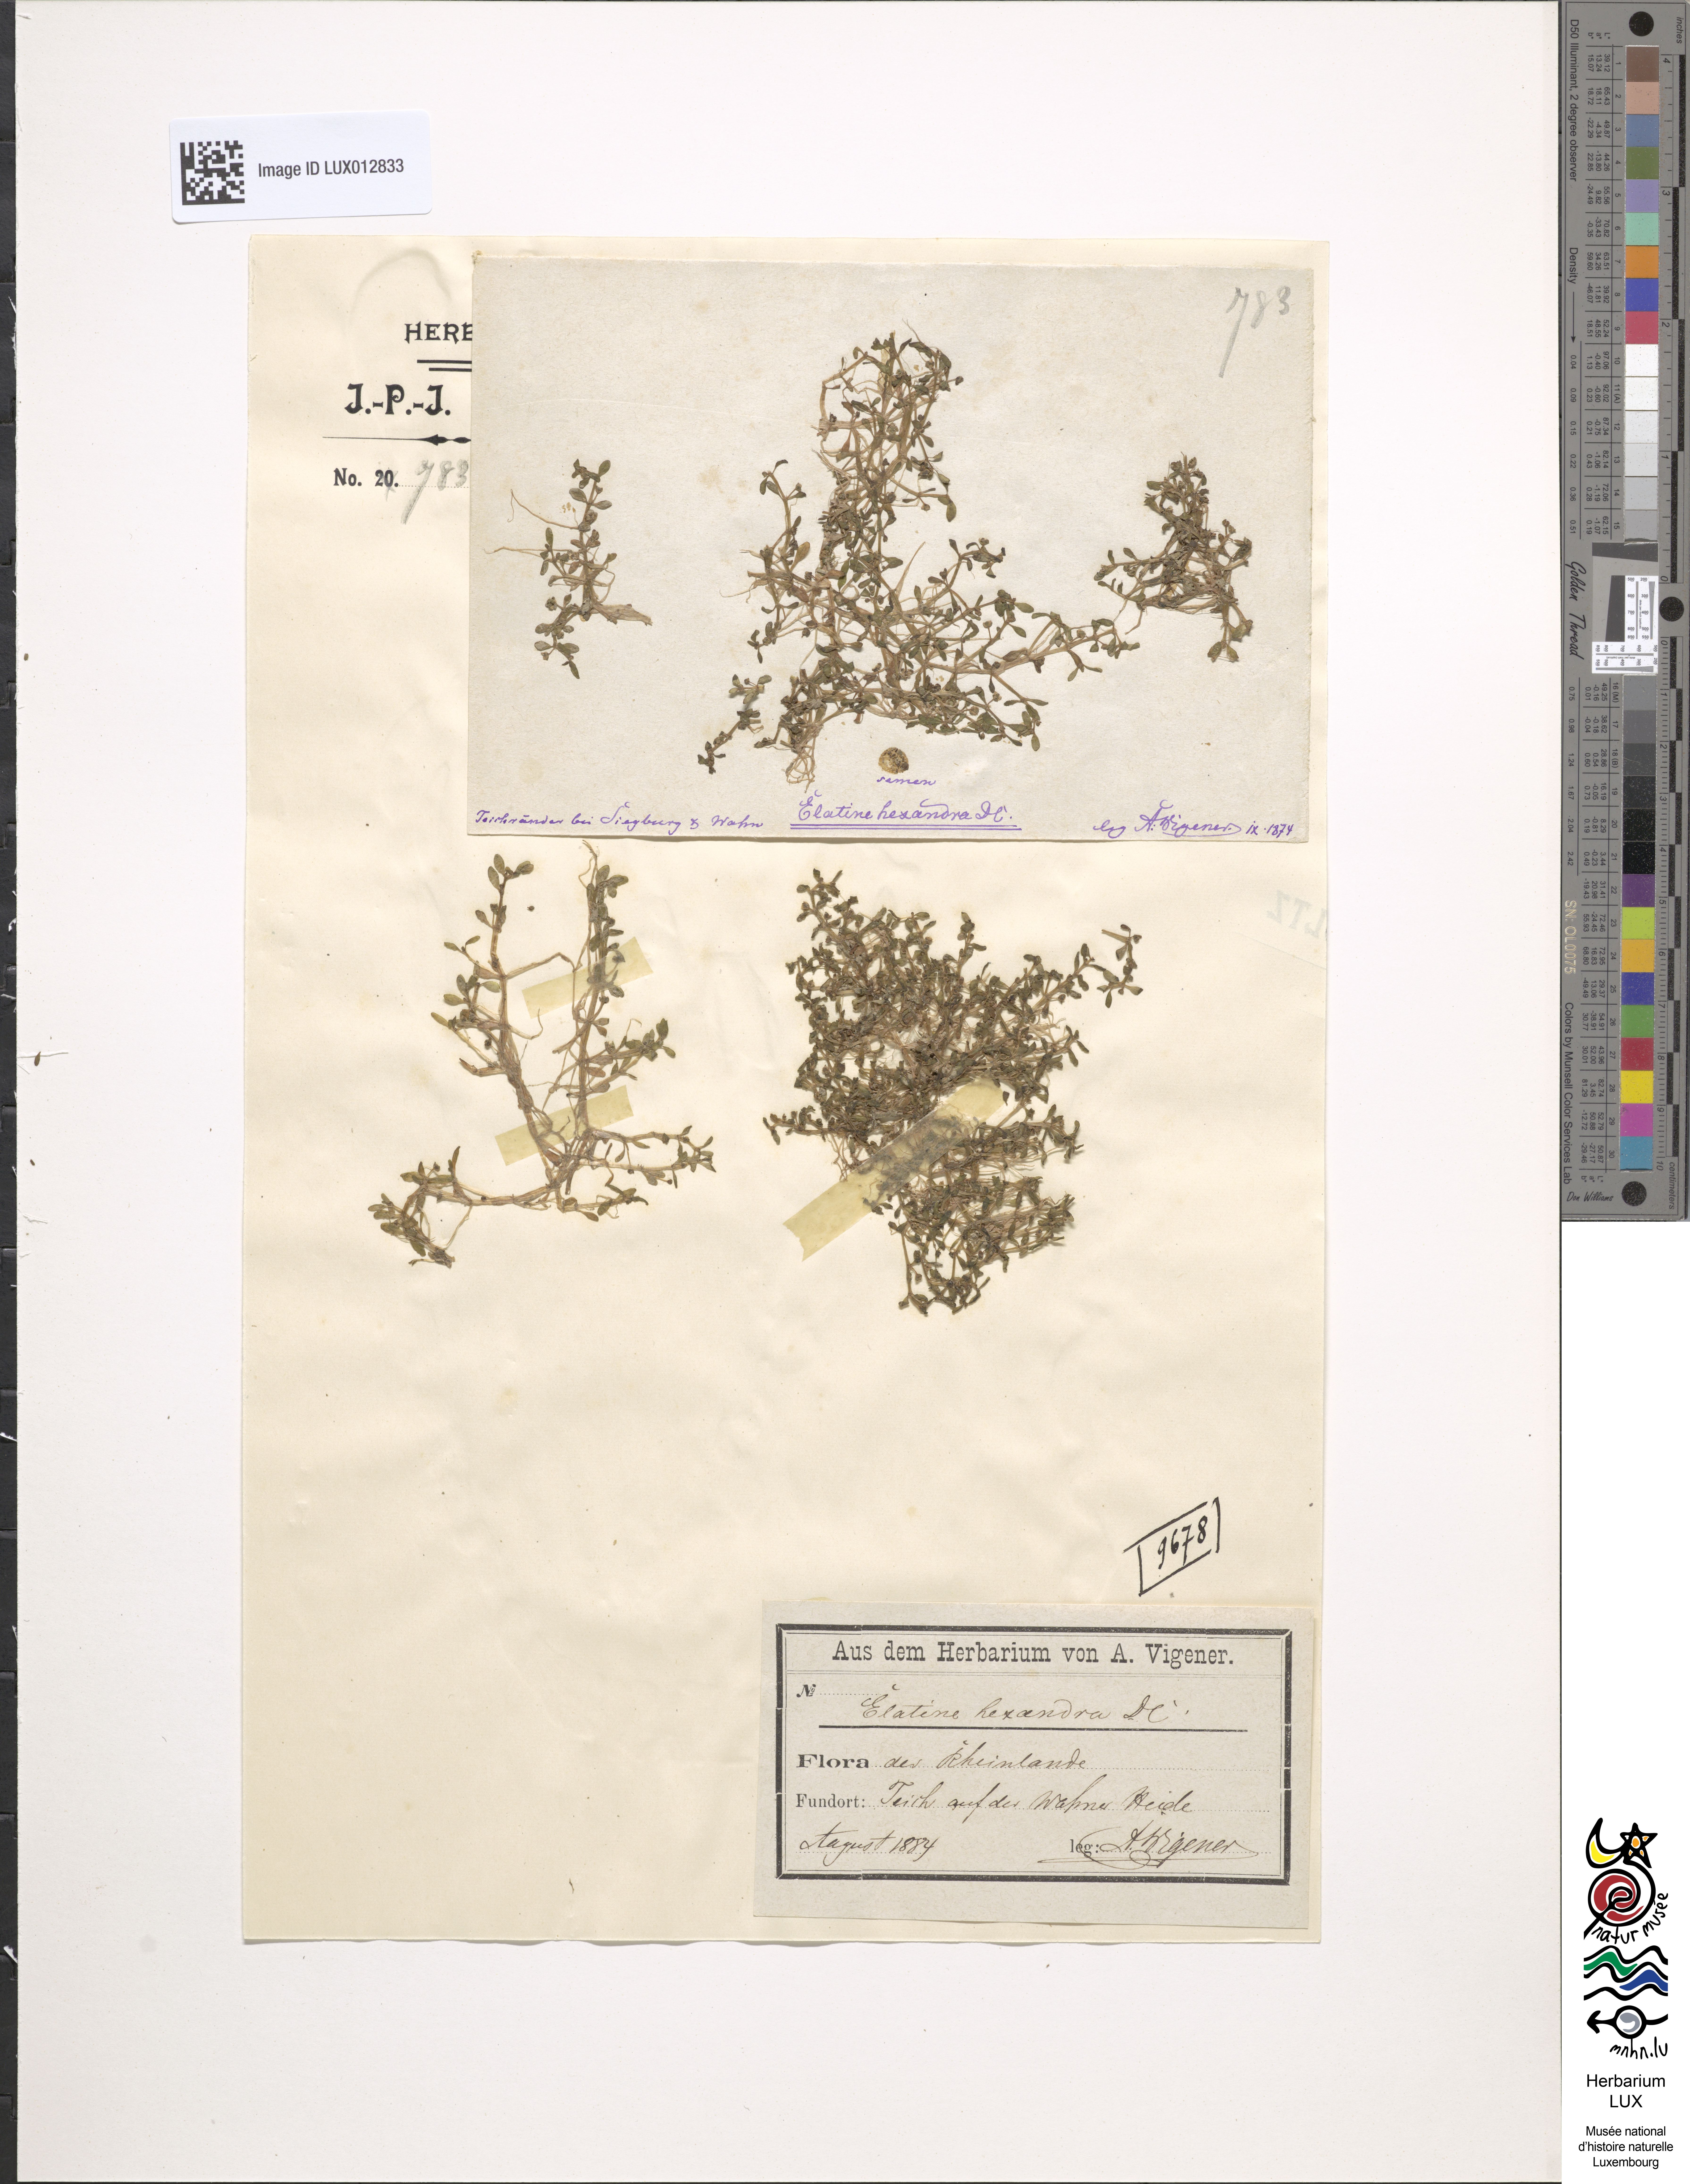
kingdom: Plantae
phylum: Tracheophyta
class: Magnoliopsida
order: Malpighiales
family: Elatinaceae
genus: Elatine
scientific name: Elatine hexandra
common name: Six-stamened waterwort
